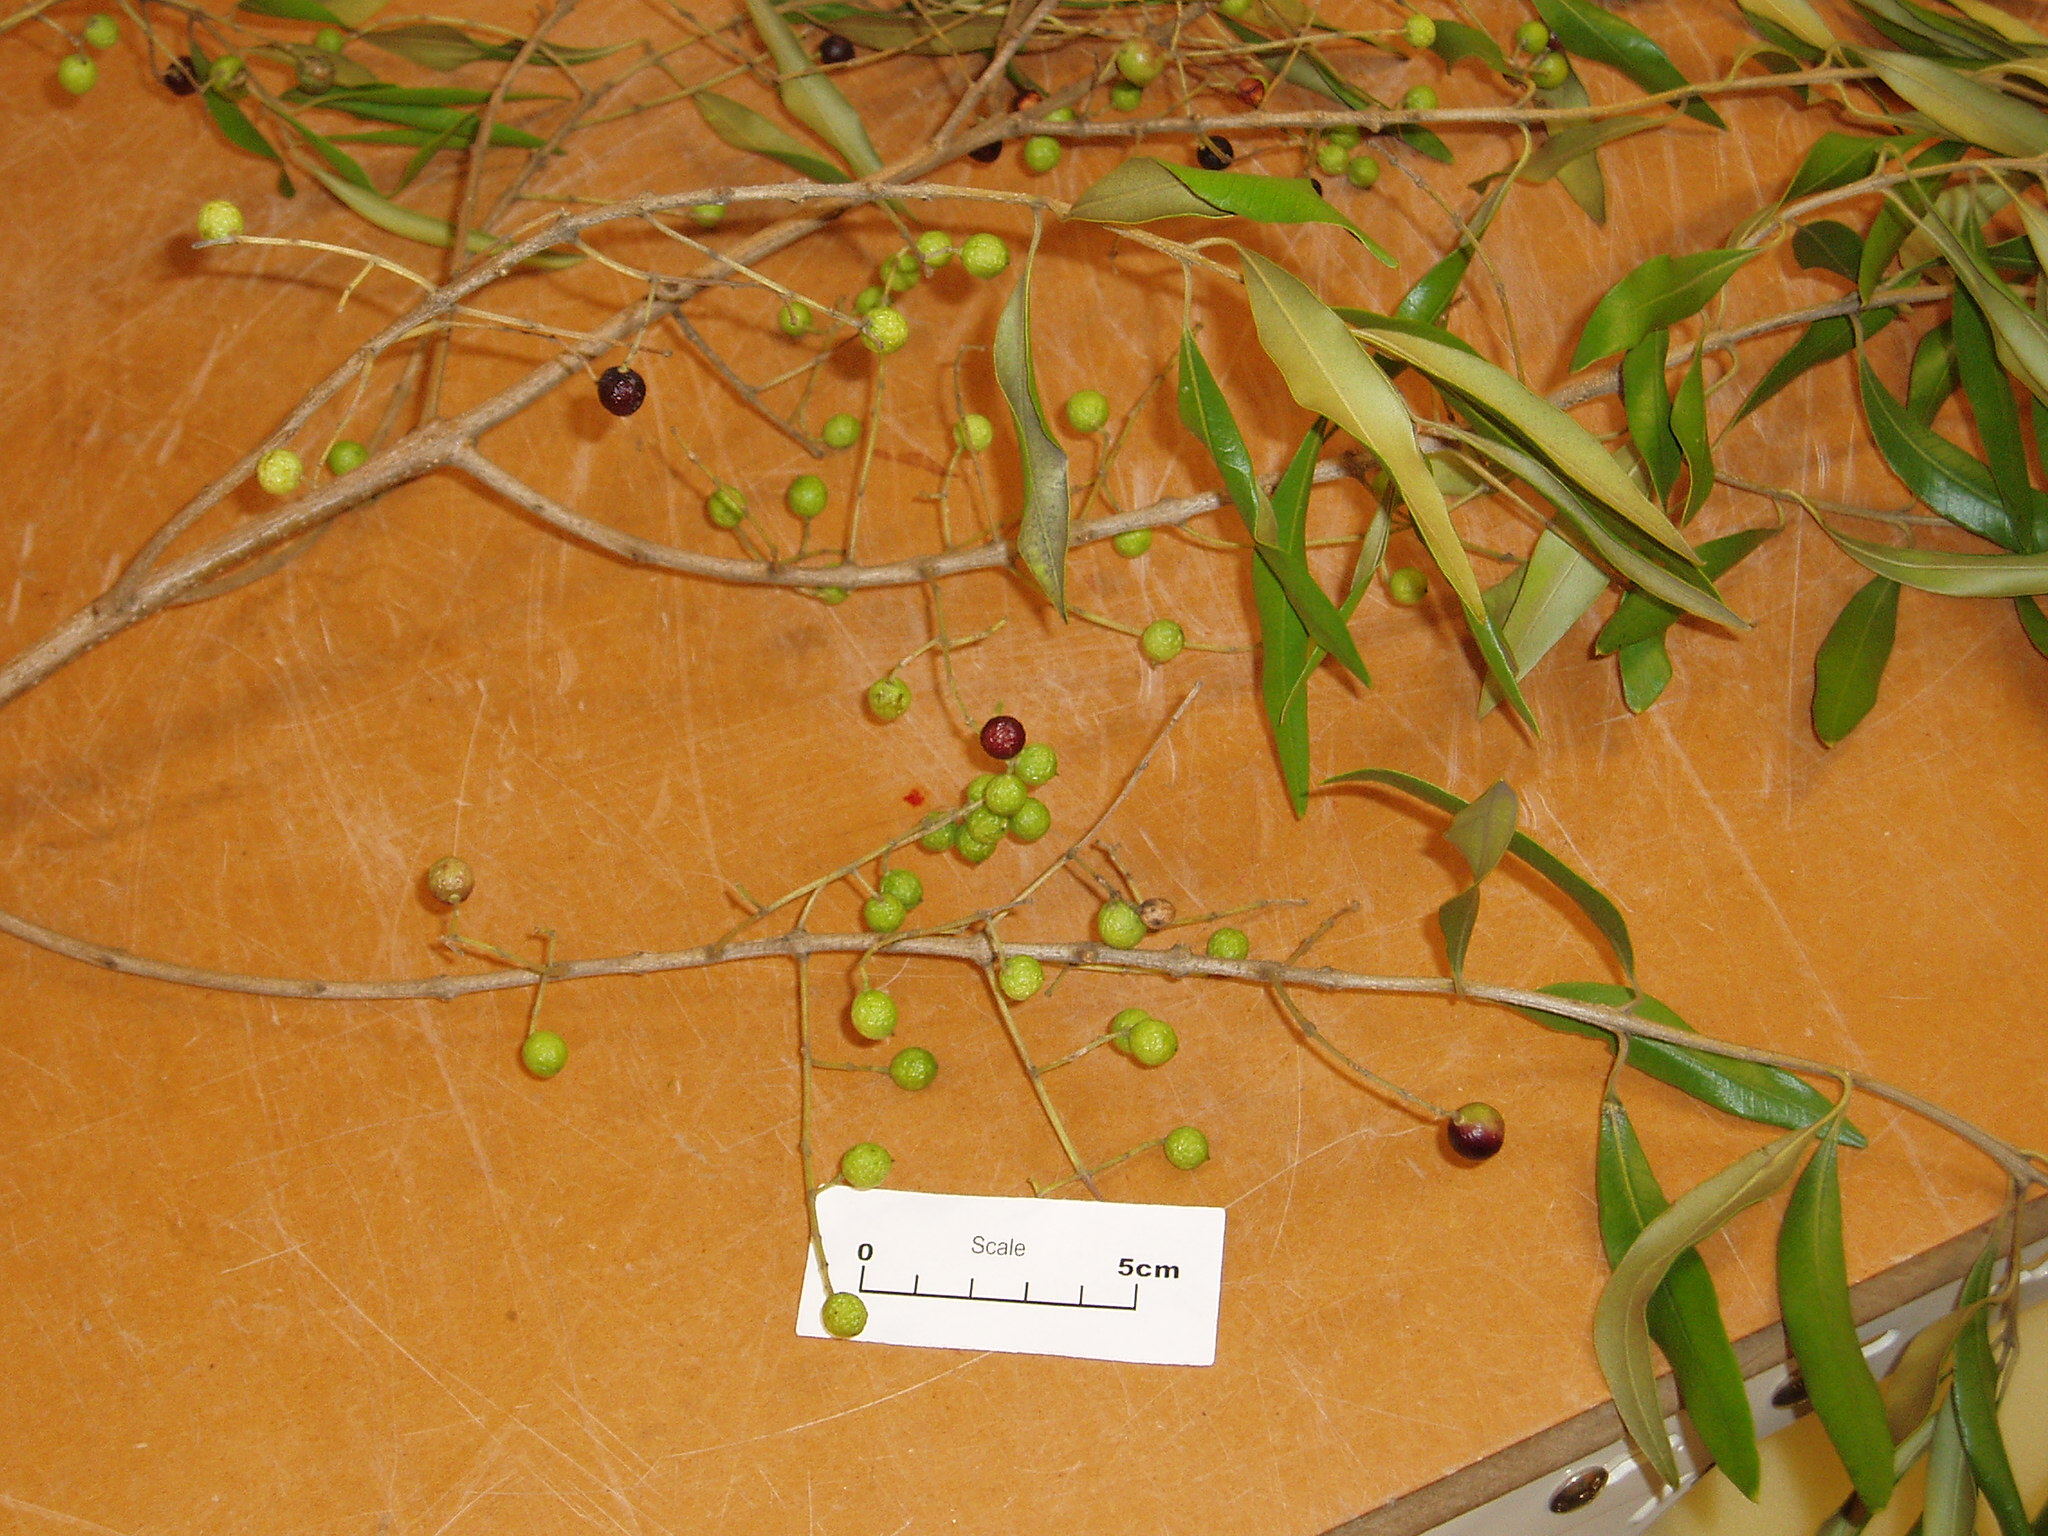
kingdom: Plantae
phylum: Tracheophyta
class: Magnoliopsida
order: Lamiales
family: Oleaceae
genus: Olea
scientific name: Olea europaea
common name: Olive
